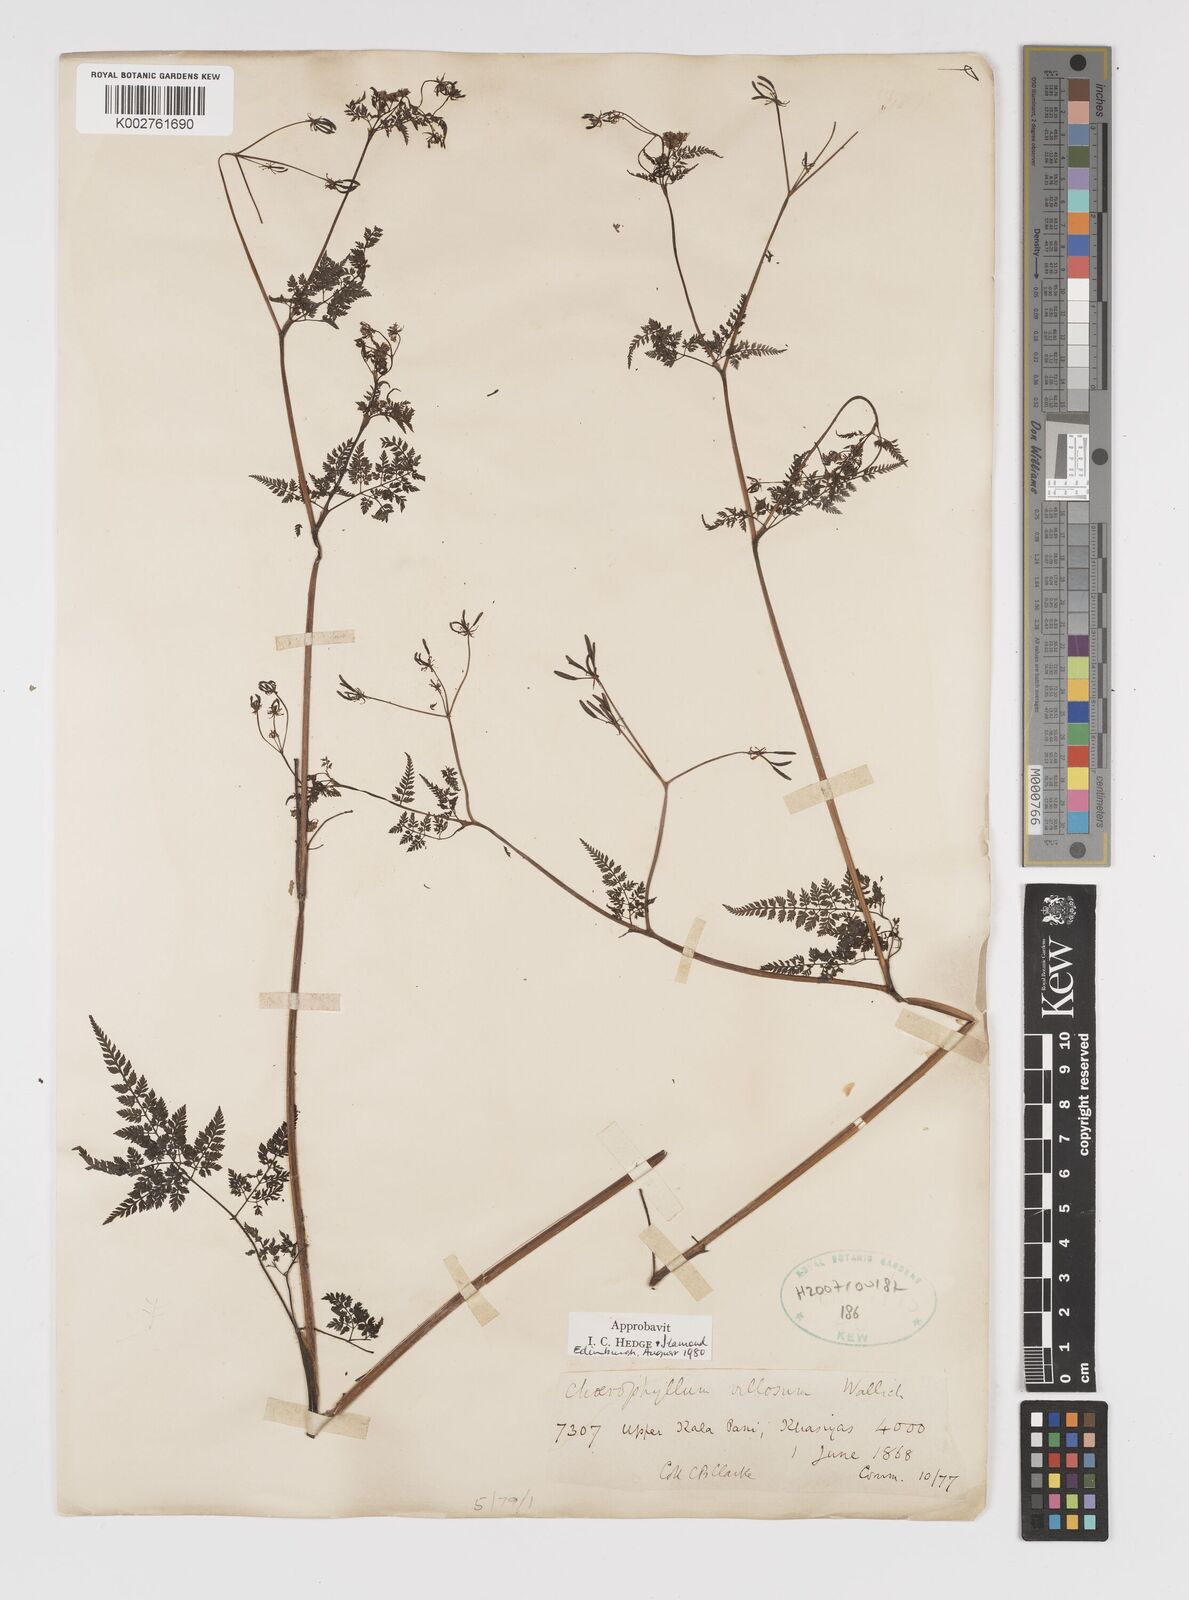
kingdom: Plantae
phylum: Tracheophyta
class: Magnoliopsida
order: Apiales
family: Apiaceae
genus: Chaerophyllum
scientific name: Chaerophyllum villosum
